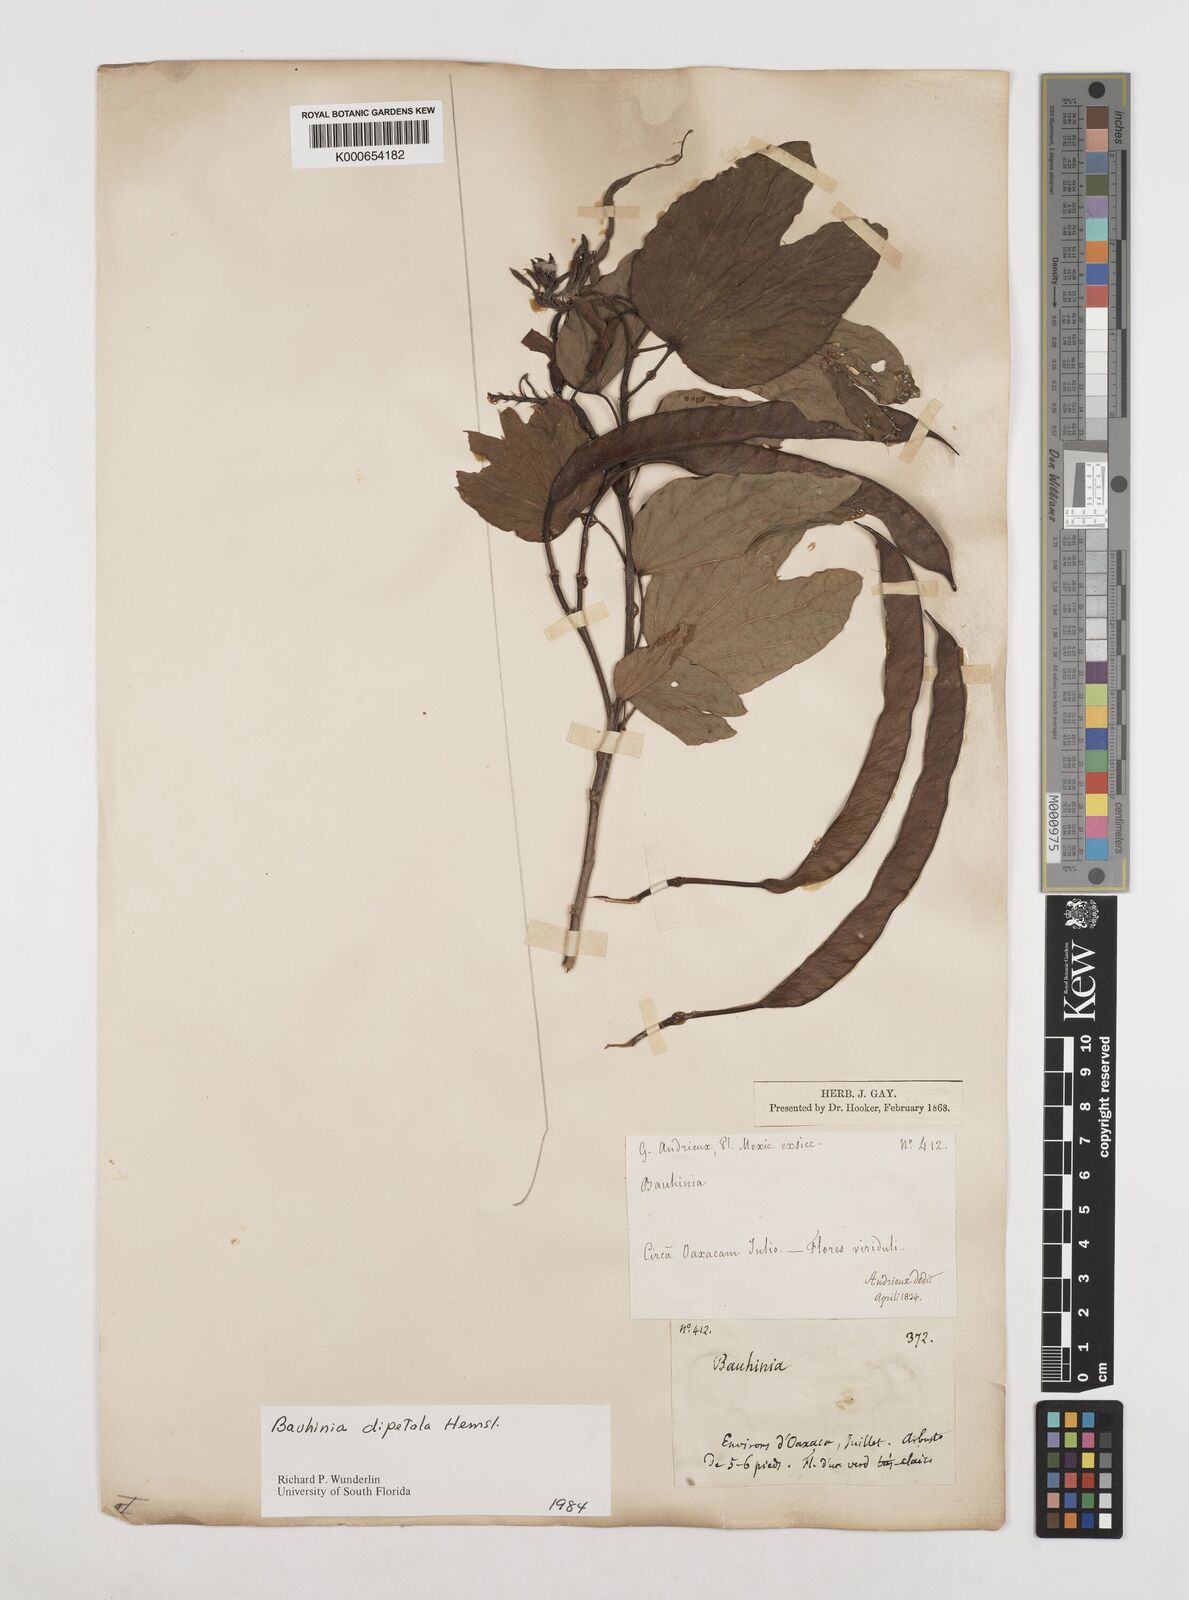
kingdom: Plantae
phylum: Tracheophyta
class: Magnoliopsida
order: Fabales
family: Fabaceae
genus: Bauhinia
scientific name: Bauhinia dipetala
